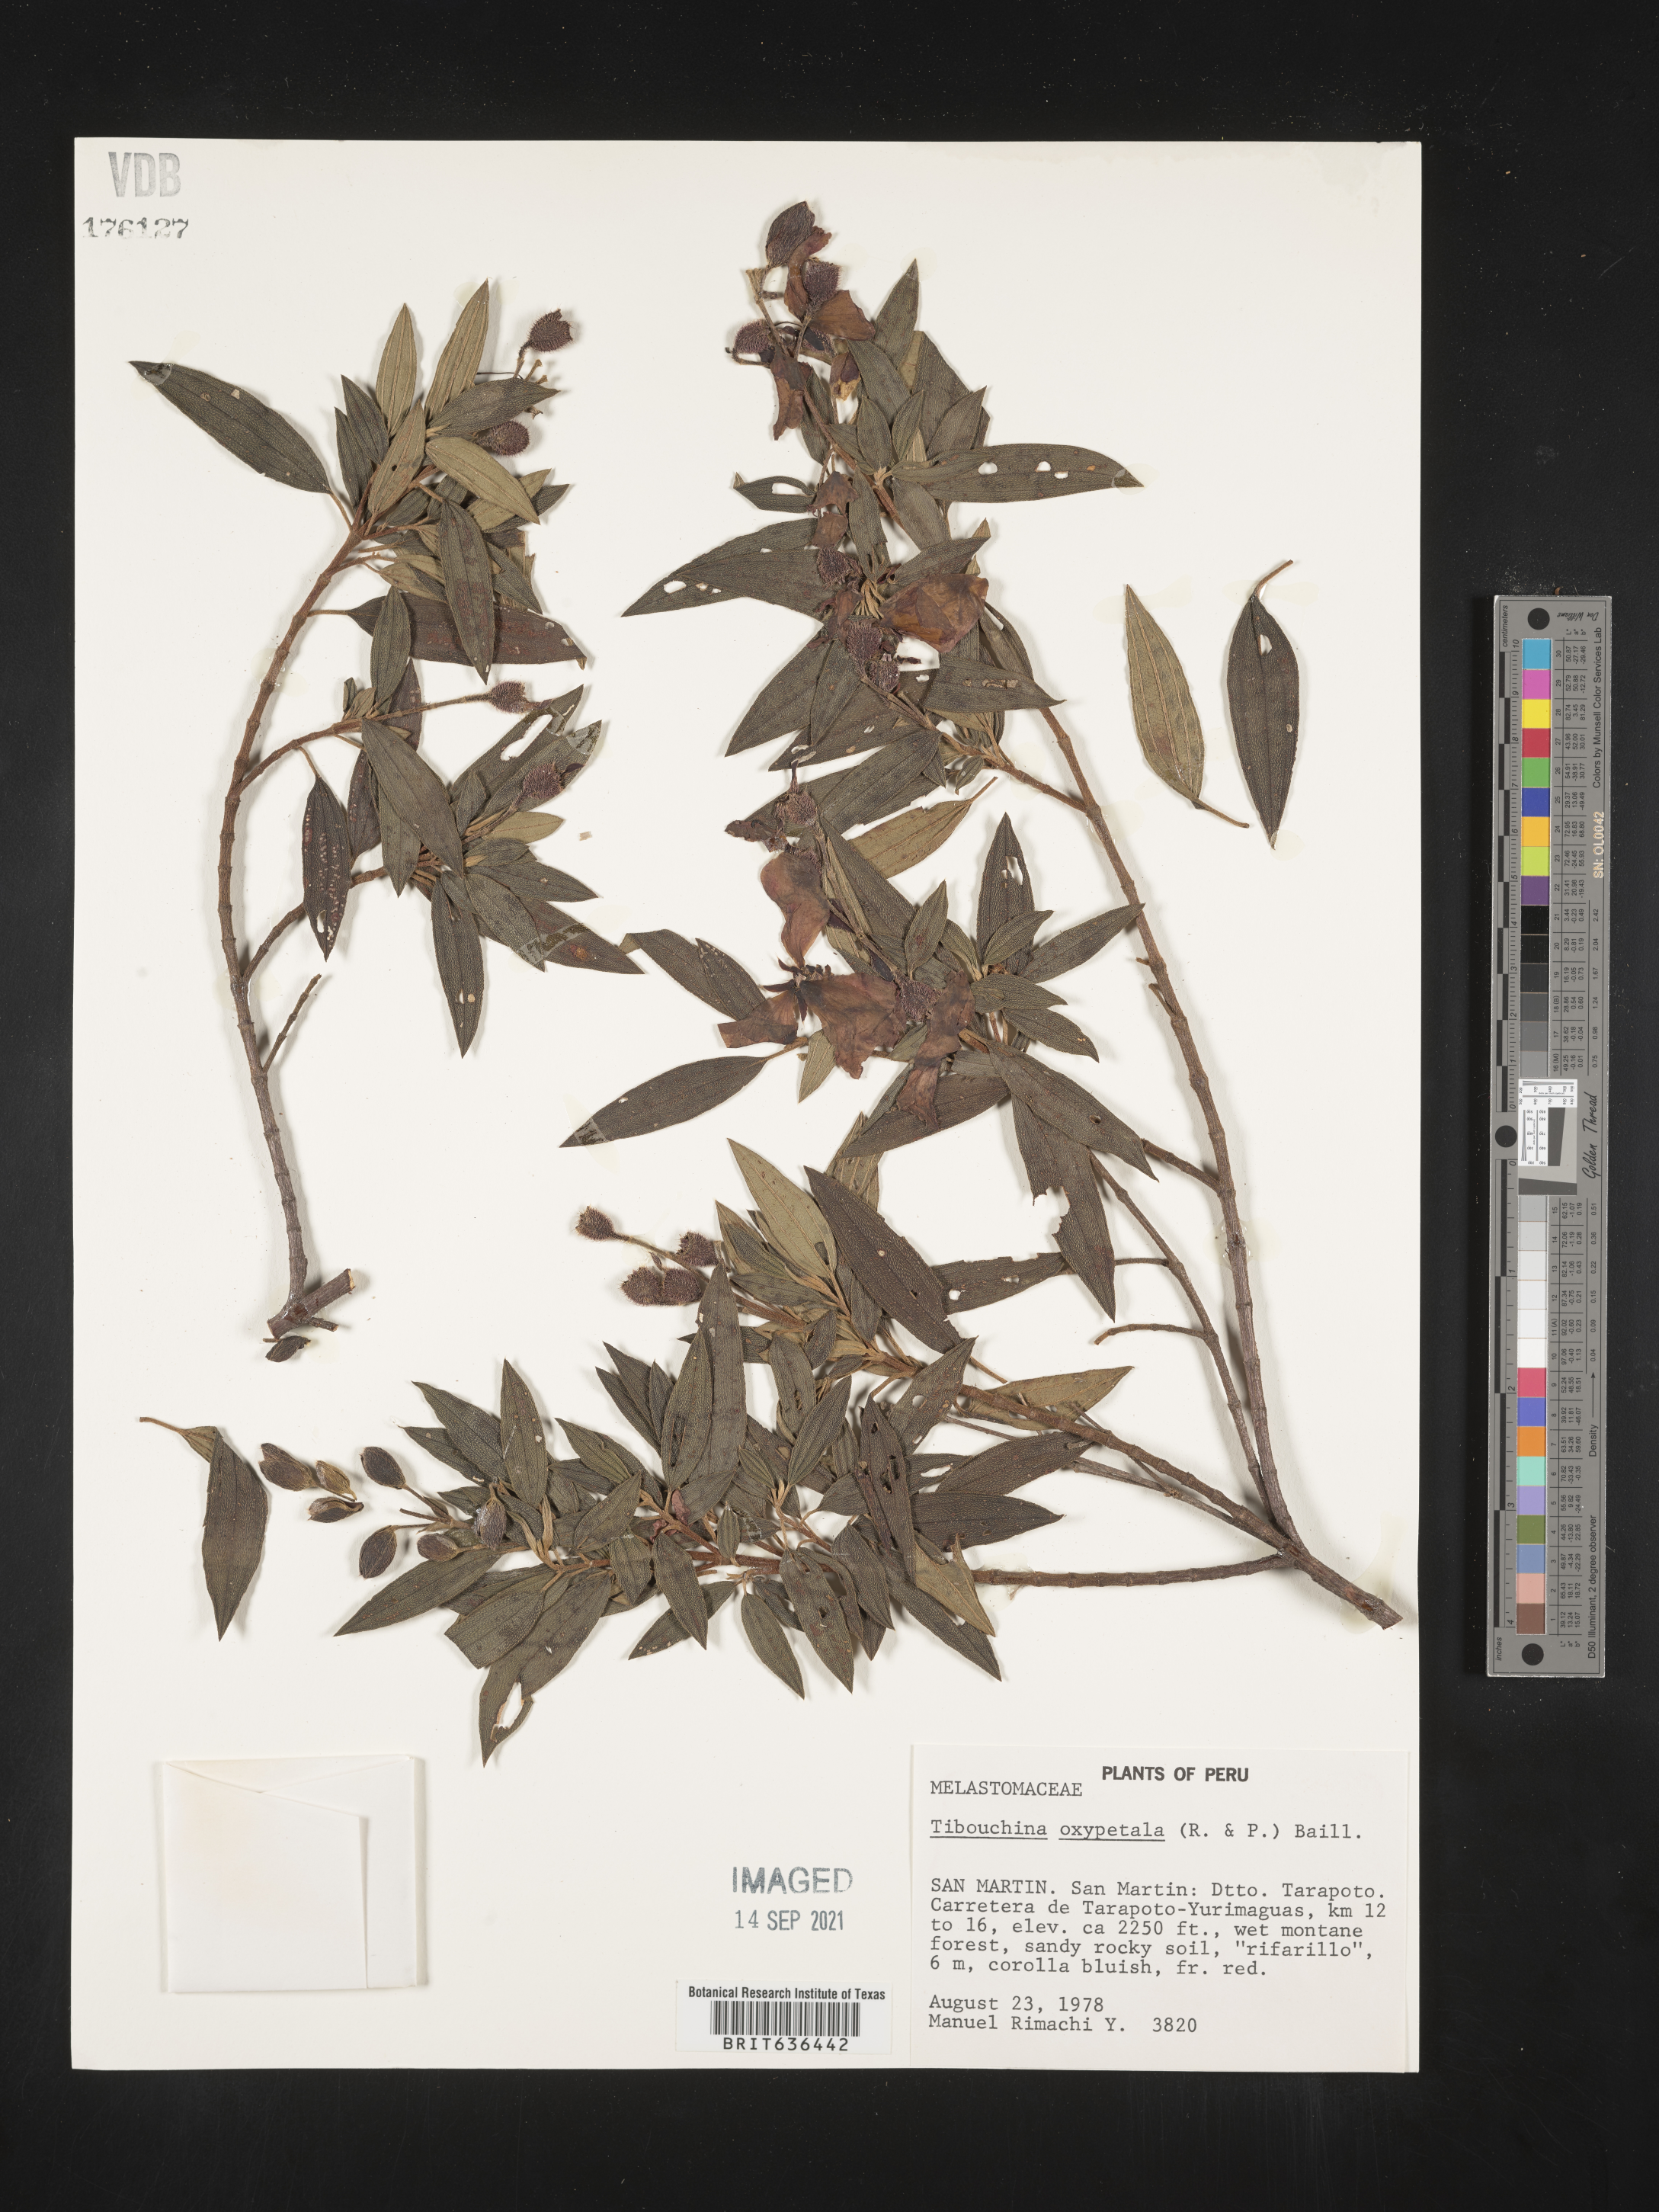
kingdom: Plantae
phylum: Tracheophyta
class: Magnoliopsida
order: Myrtales
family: Melastomataceae
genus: Tibouchina
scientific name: Tibouchina
